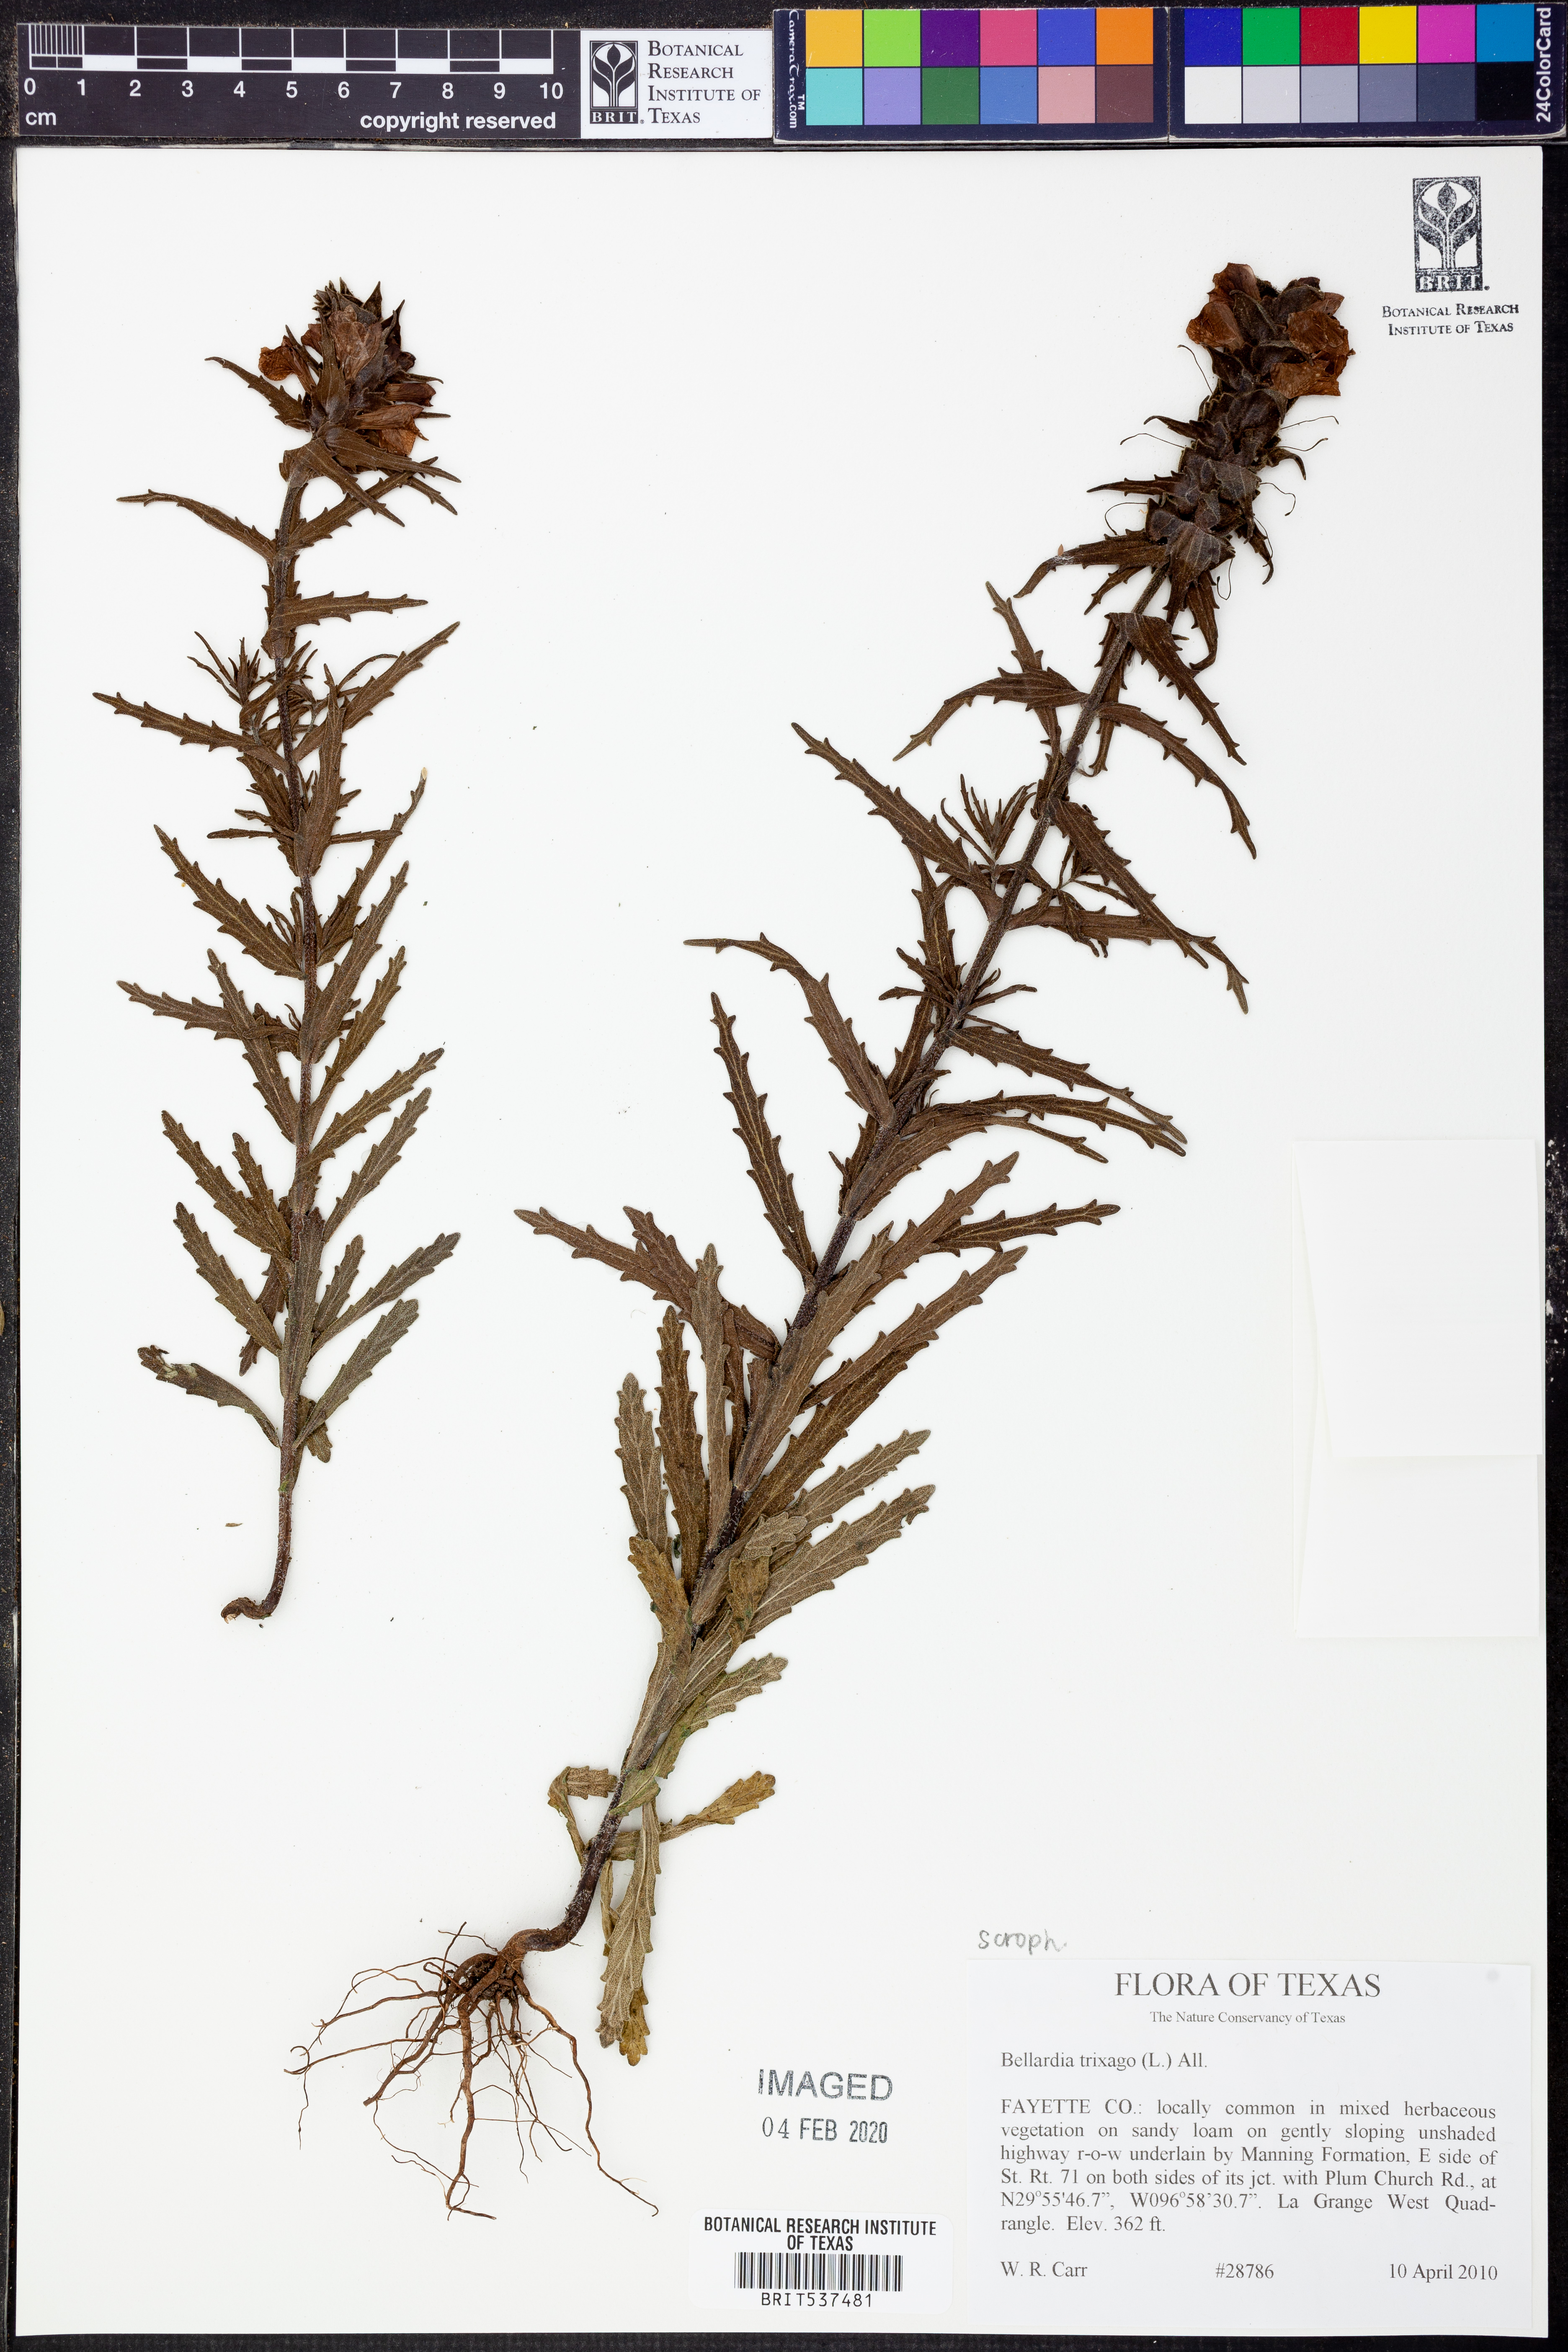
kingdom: Plantae
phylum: Tracheophyta
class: Magnoliopsida
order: Lamiales
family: Orobanchaceae
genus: Bellardia
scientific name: Bellardia trixago
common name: Mediterranean lineseed
